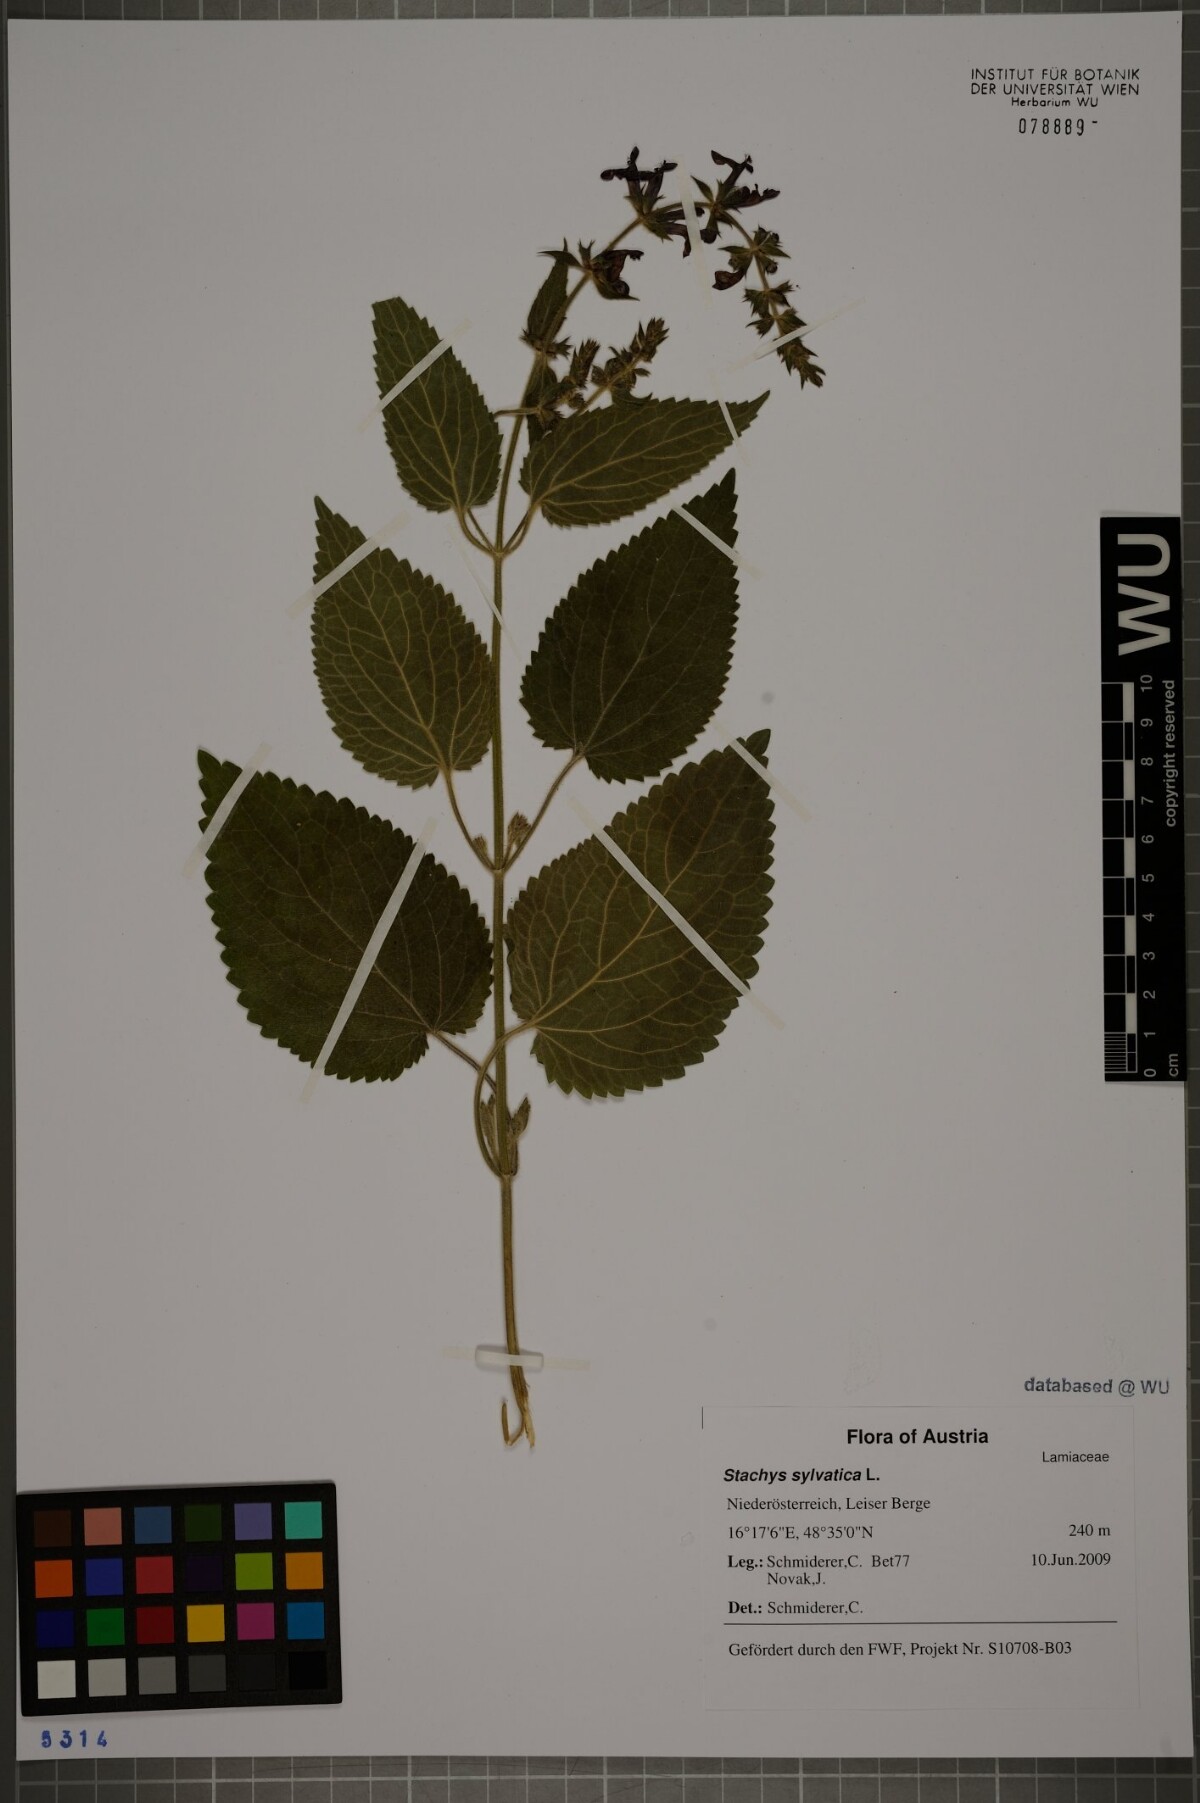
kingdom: Plantae
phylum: Tracheophyta
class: Magnoliopsida
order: Lamiales
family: Lamiaceae
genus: Stachys
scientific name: Stachys sylvatica
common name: Hedge woundwort
